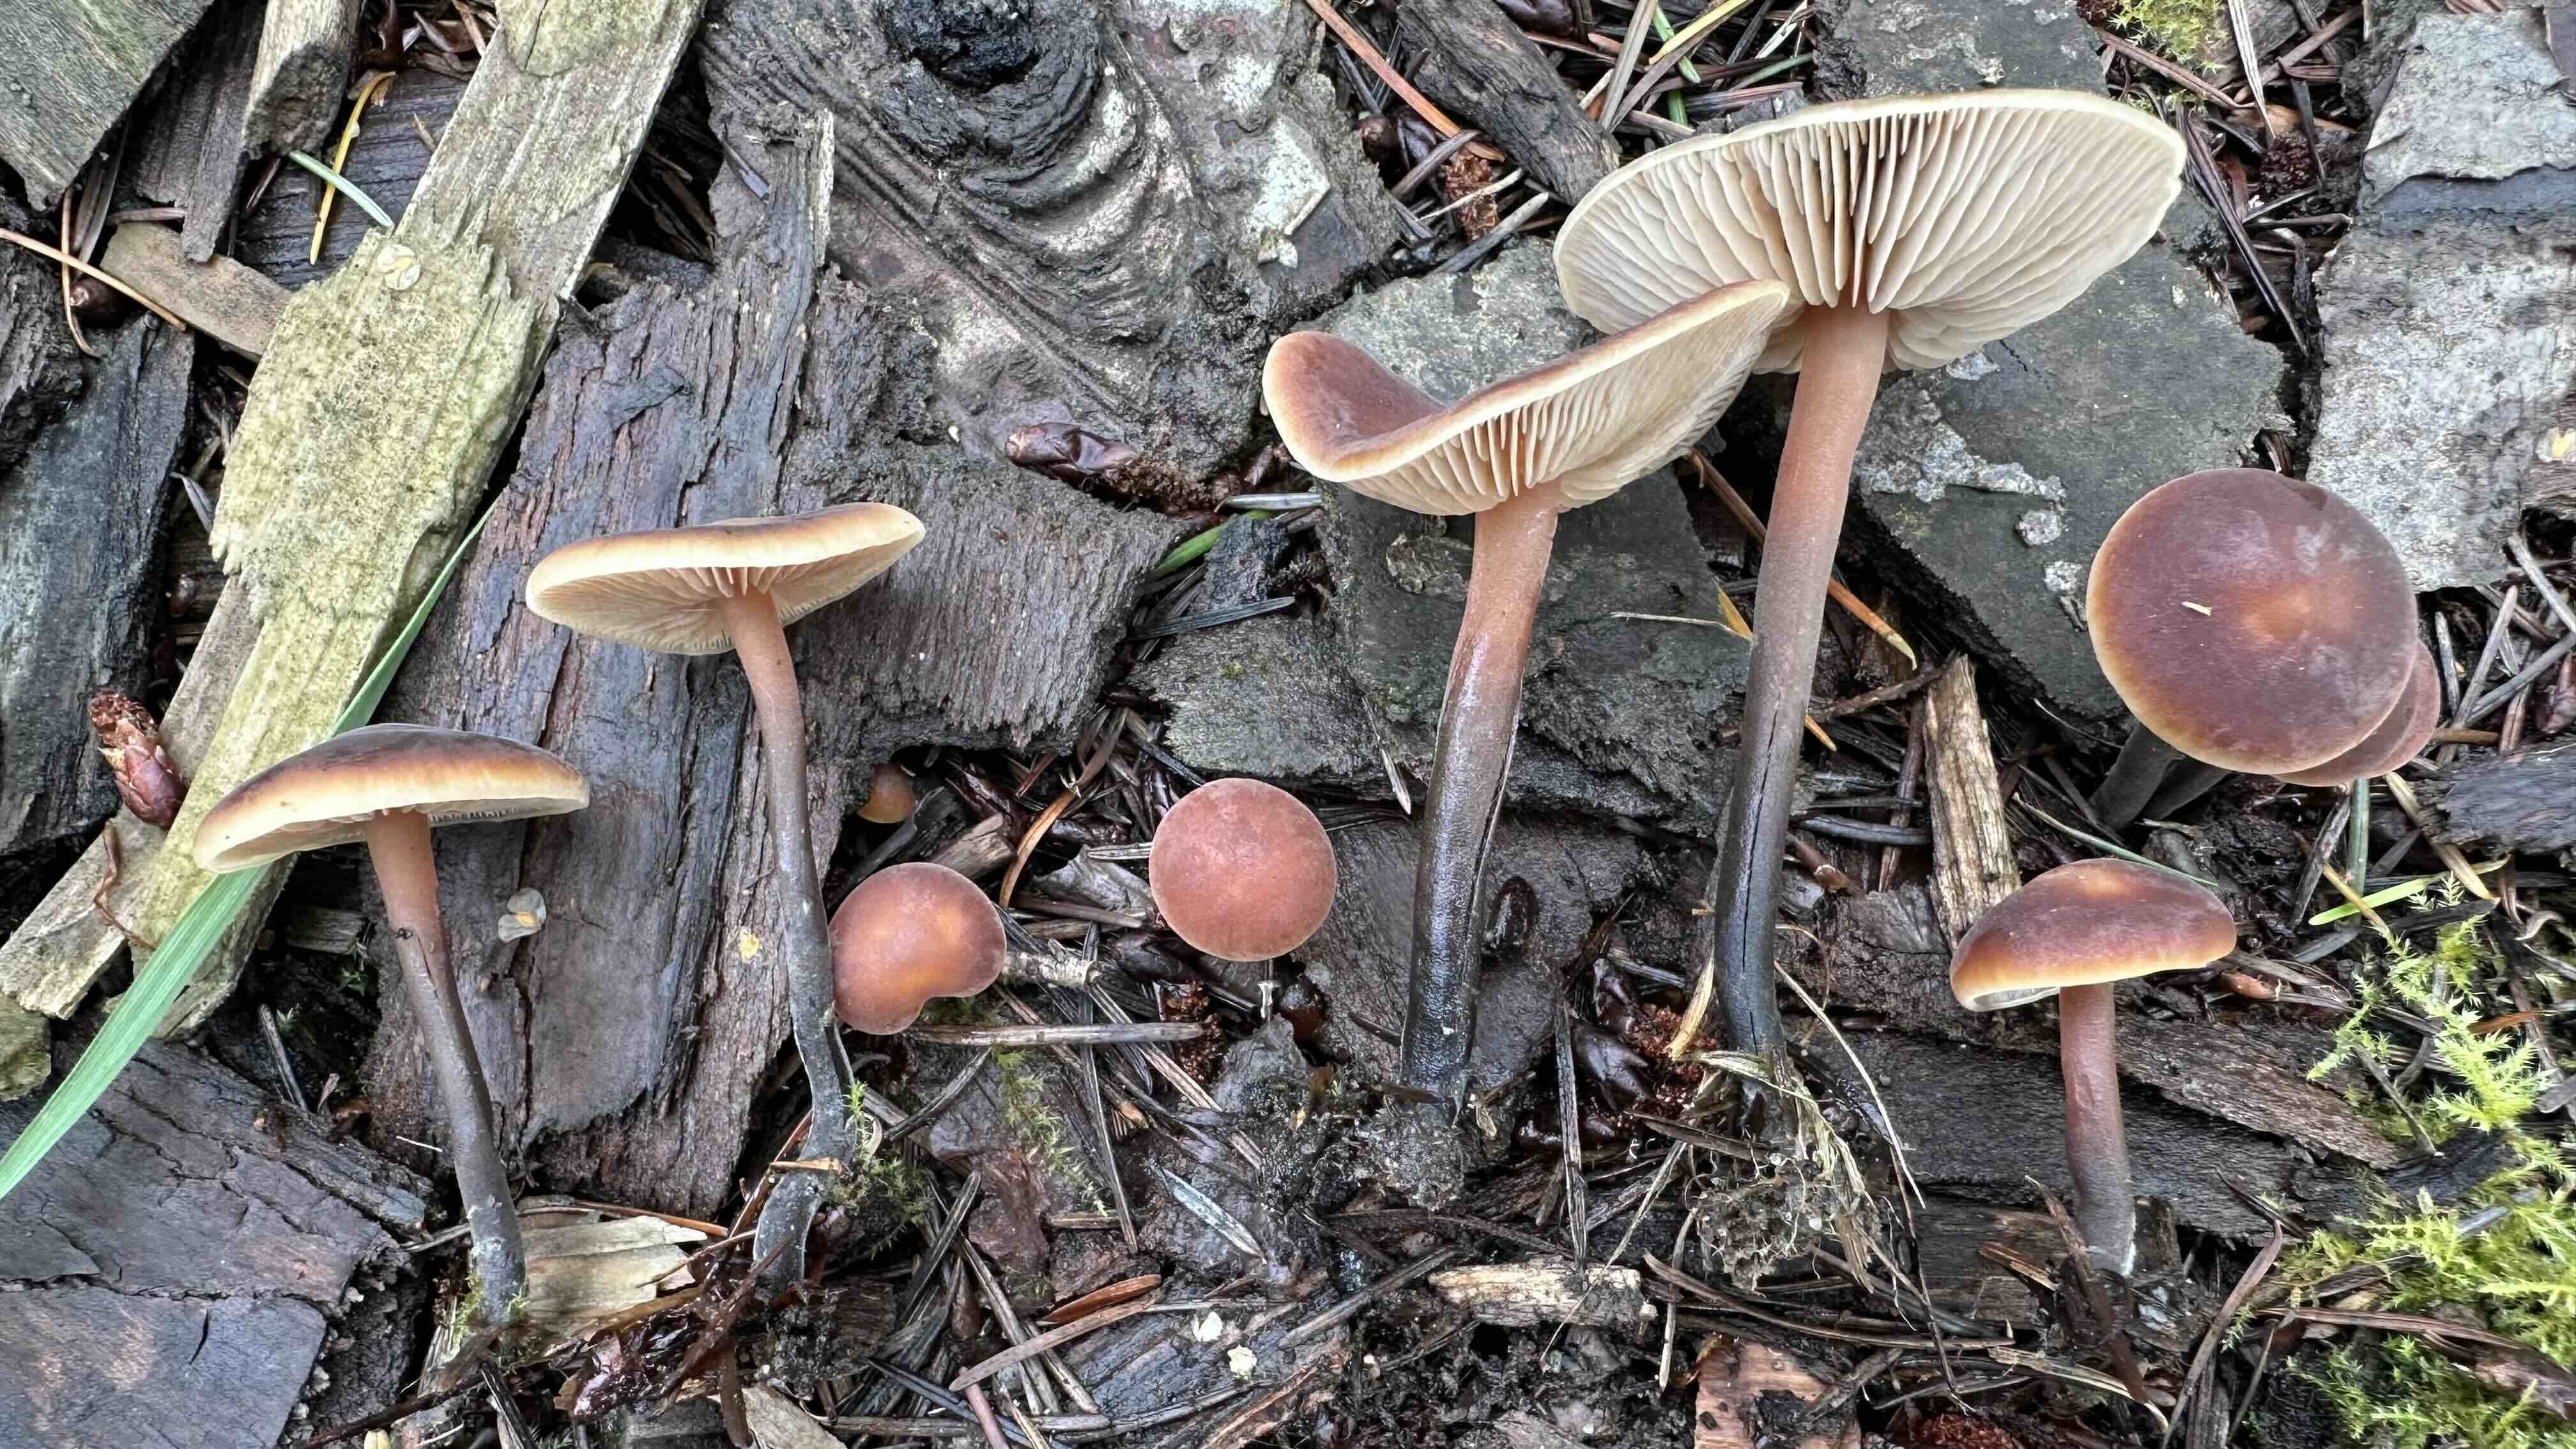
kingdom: Fungi
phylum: Basidiomycota
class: Agaricomycetes
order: Agaricales
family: Macrocystidiaceae
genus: Macrocystidia
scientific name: Macrocystidia cucumis
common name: agurkehat
